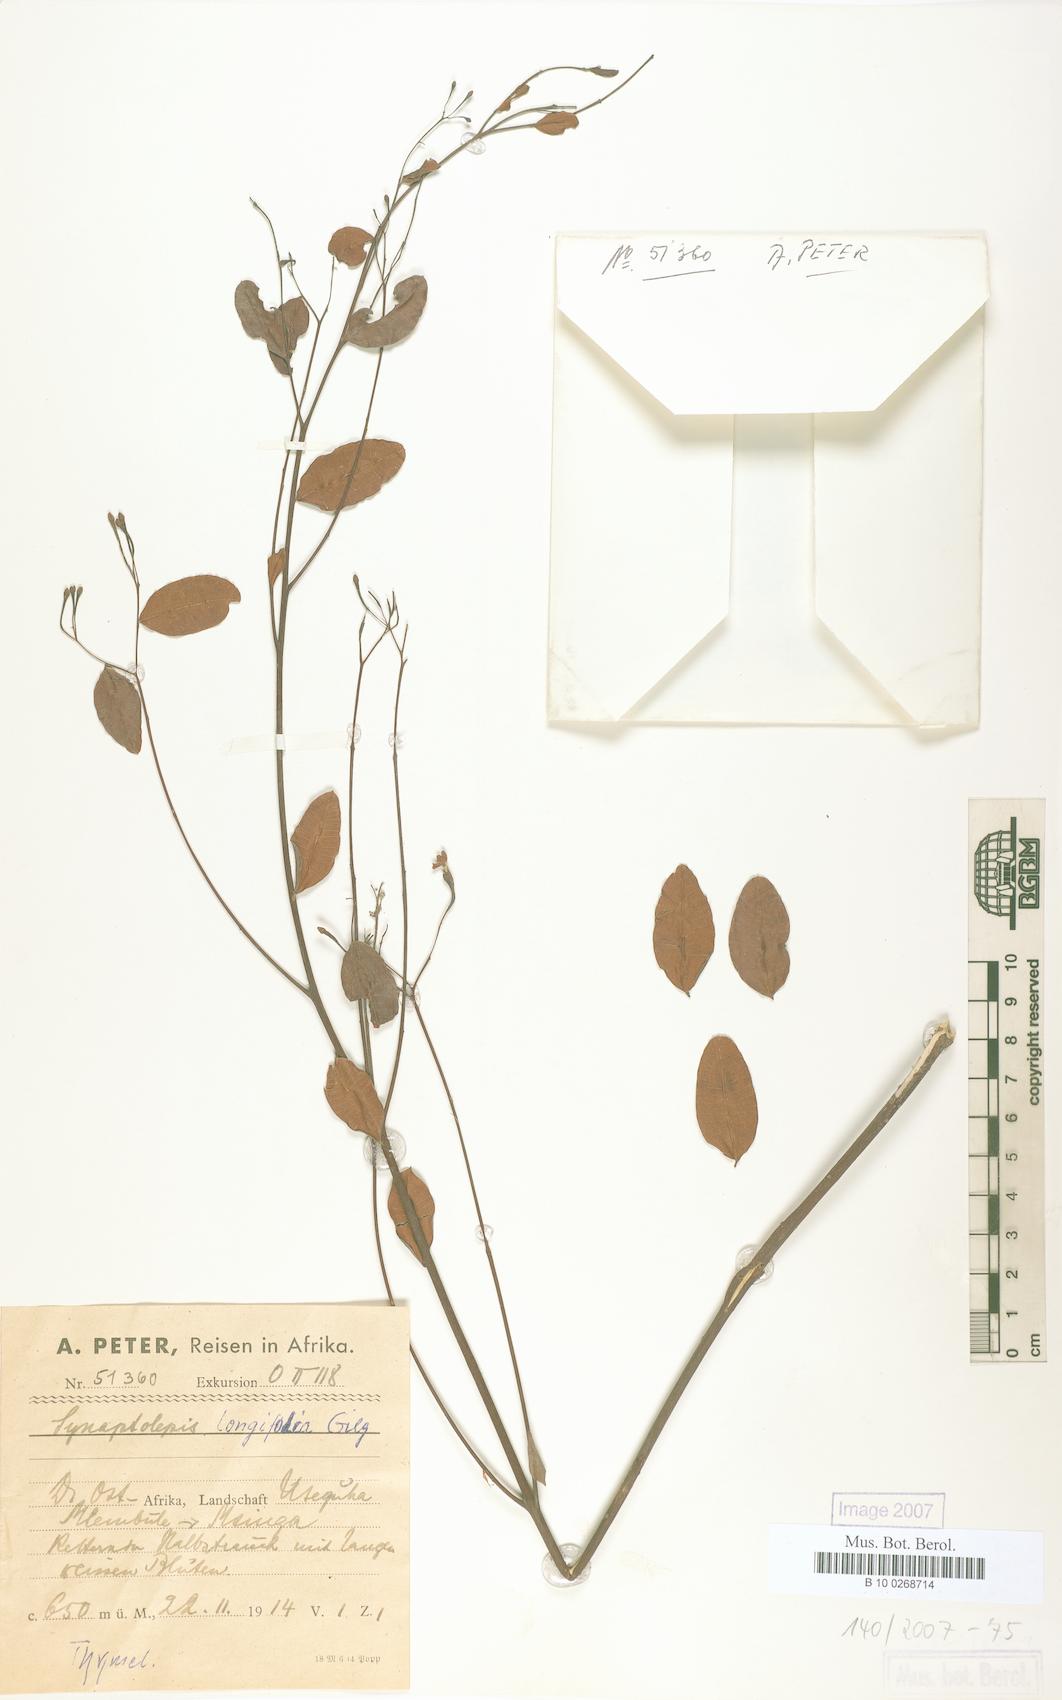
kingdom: Plantae
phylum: Tracheophyta
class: Magnoliopsida
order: Malvales
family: Thymelaeaceae
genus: Synaptolepis
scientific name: Synaptolepis alternifolia
